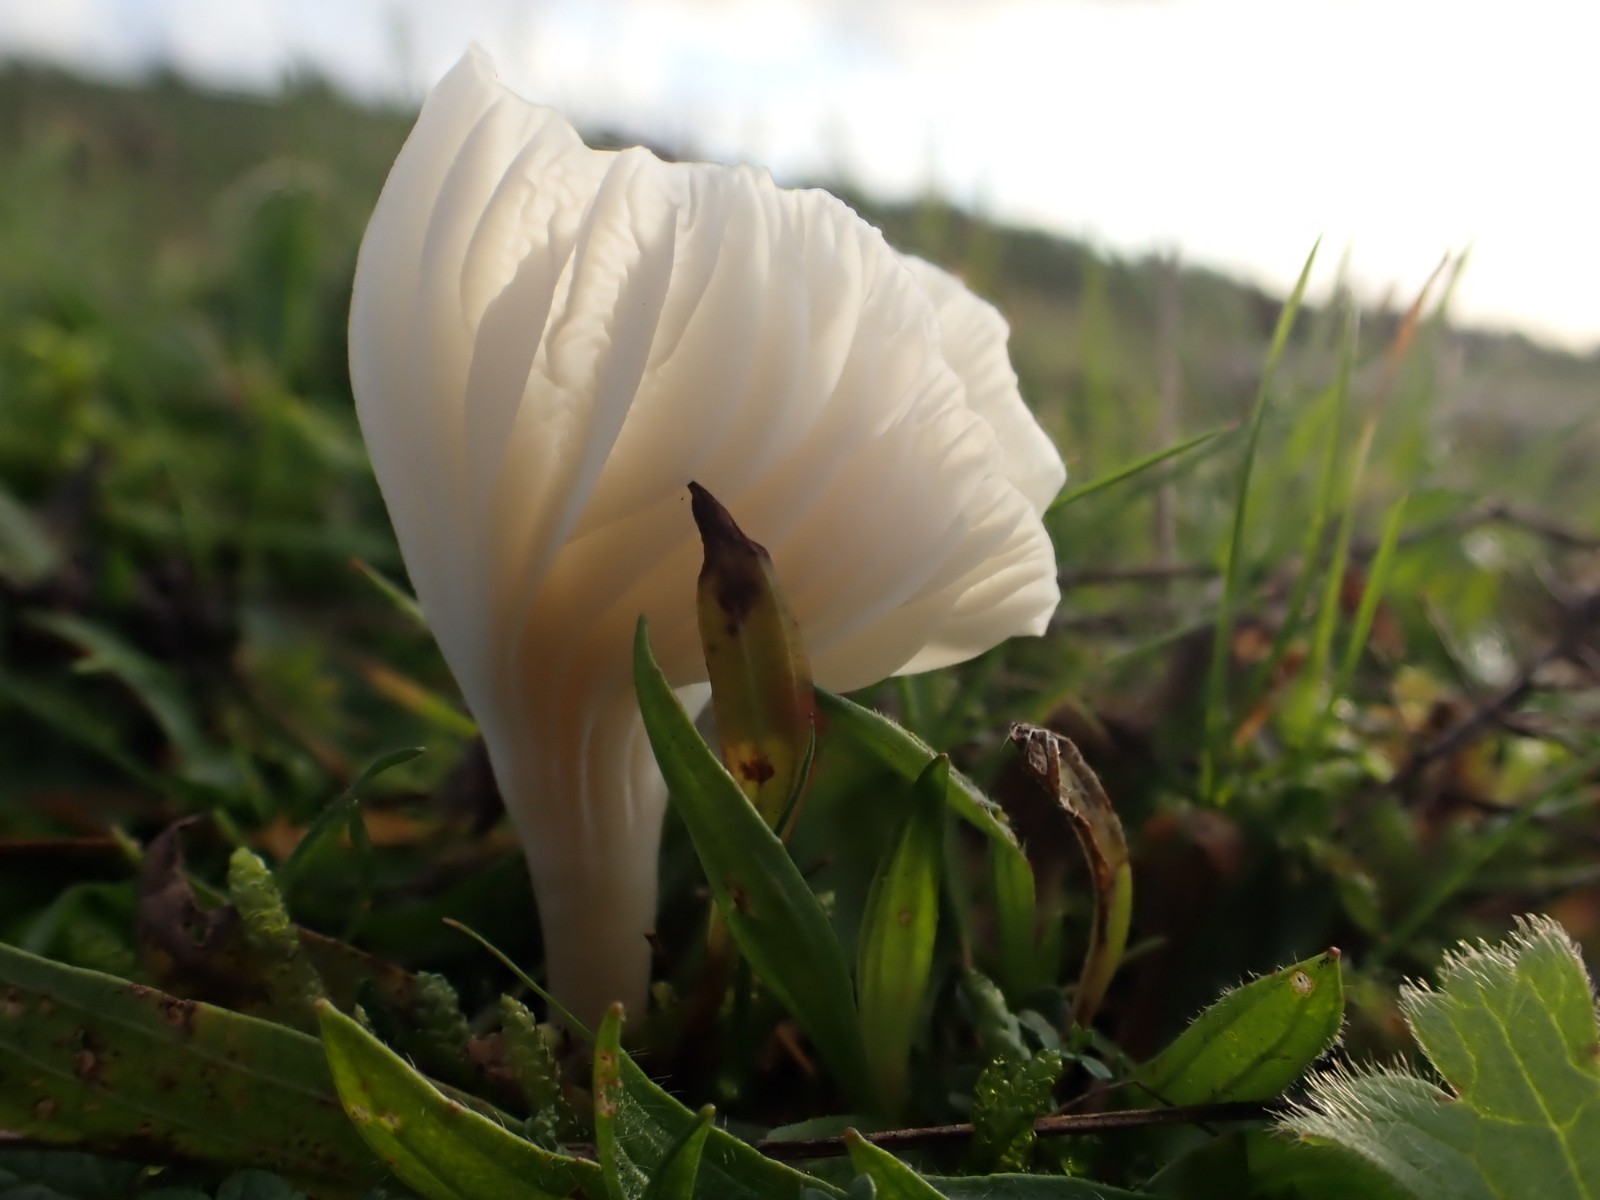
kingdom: Fungi
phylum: Basidiomycota
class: Agaricomycetes
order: Agaricales
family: Hygrophoraceae
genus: Cuphophyllus
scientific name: Cuphophyllus virgineus
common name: snehvid vokshat
